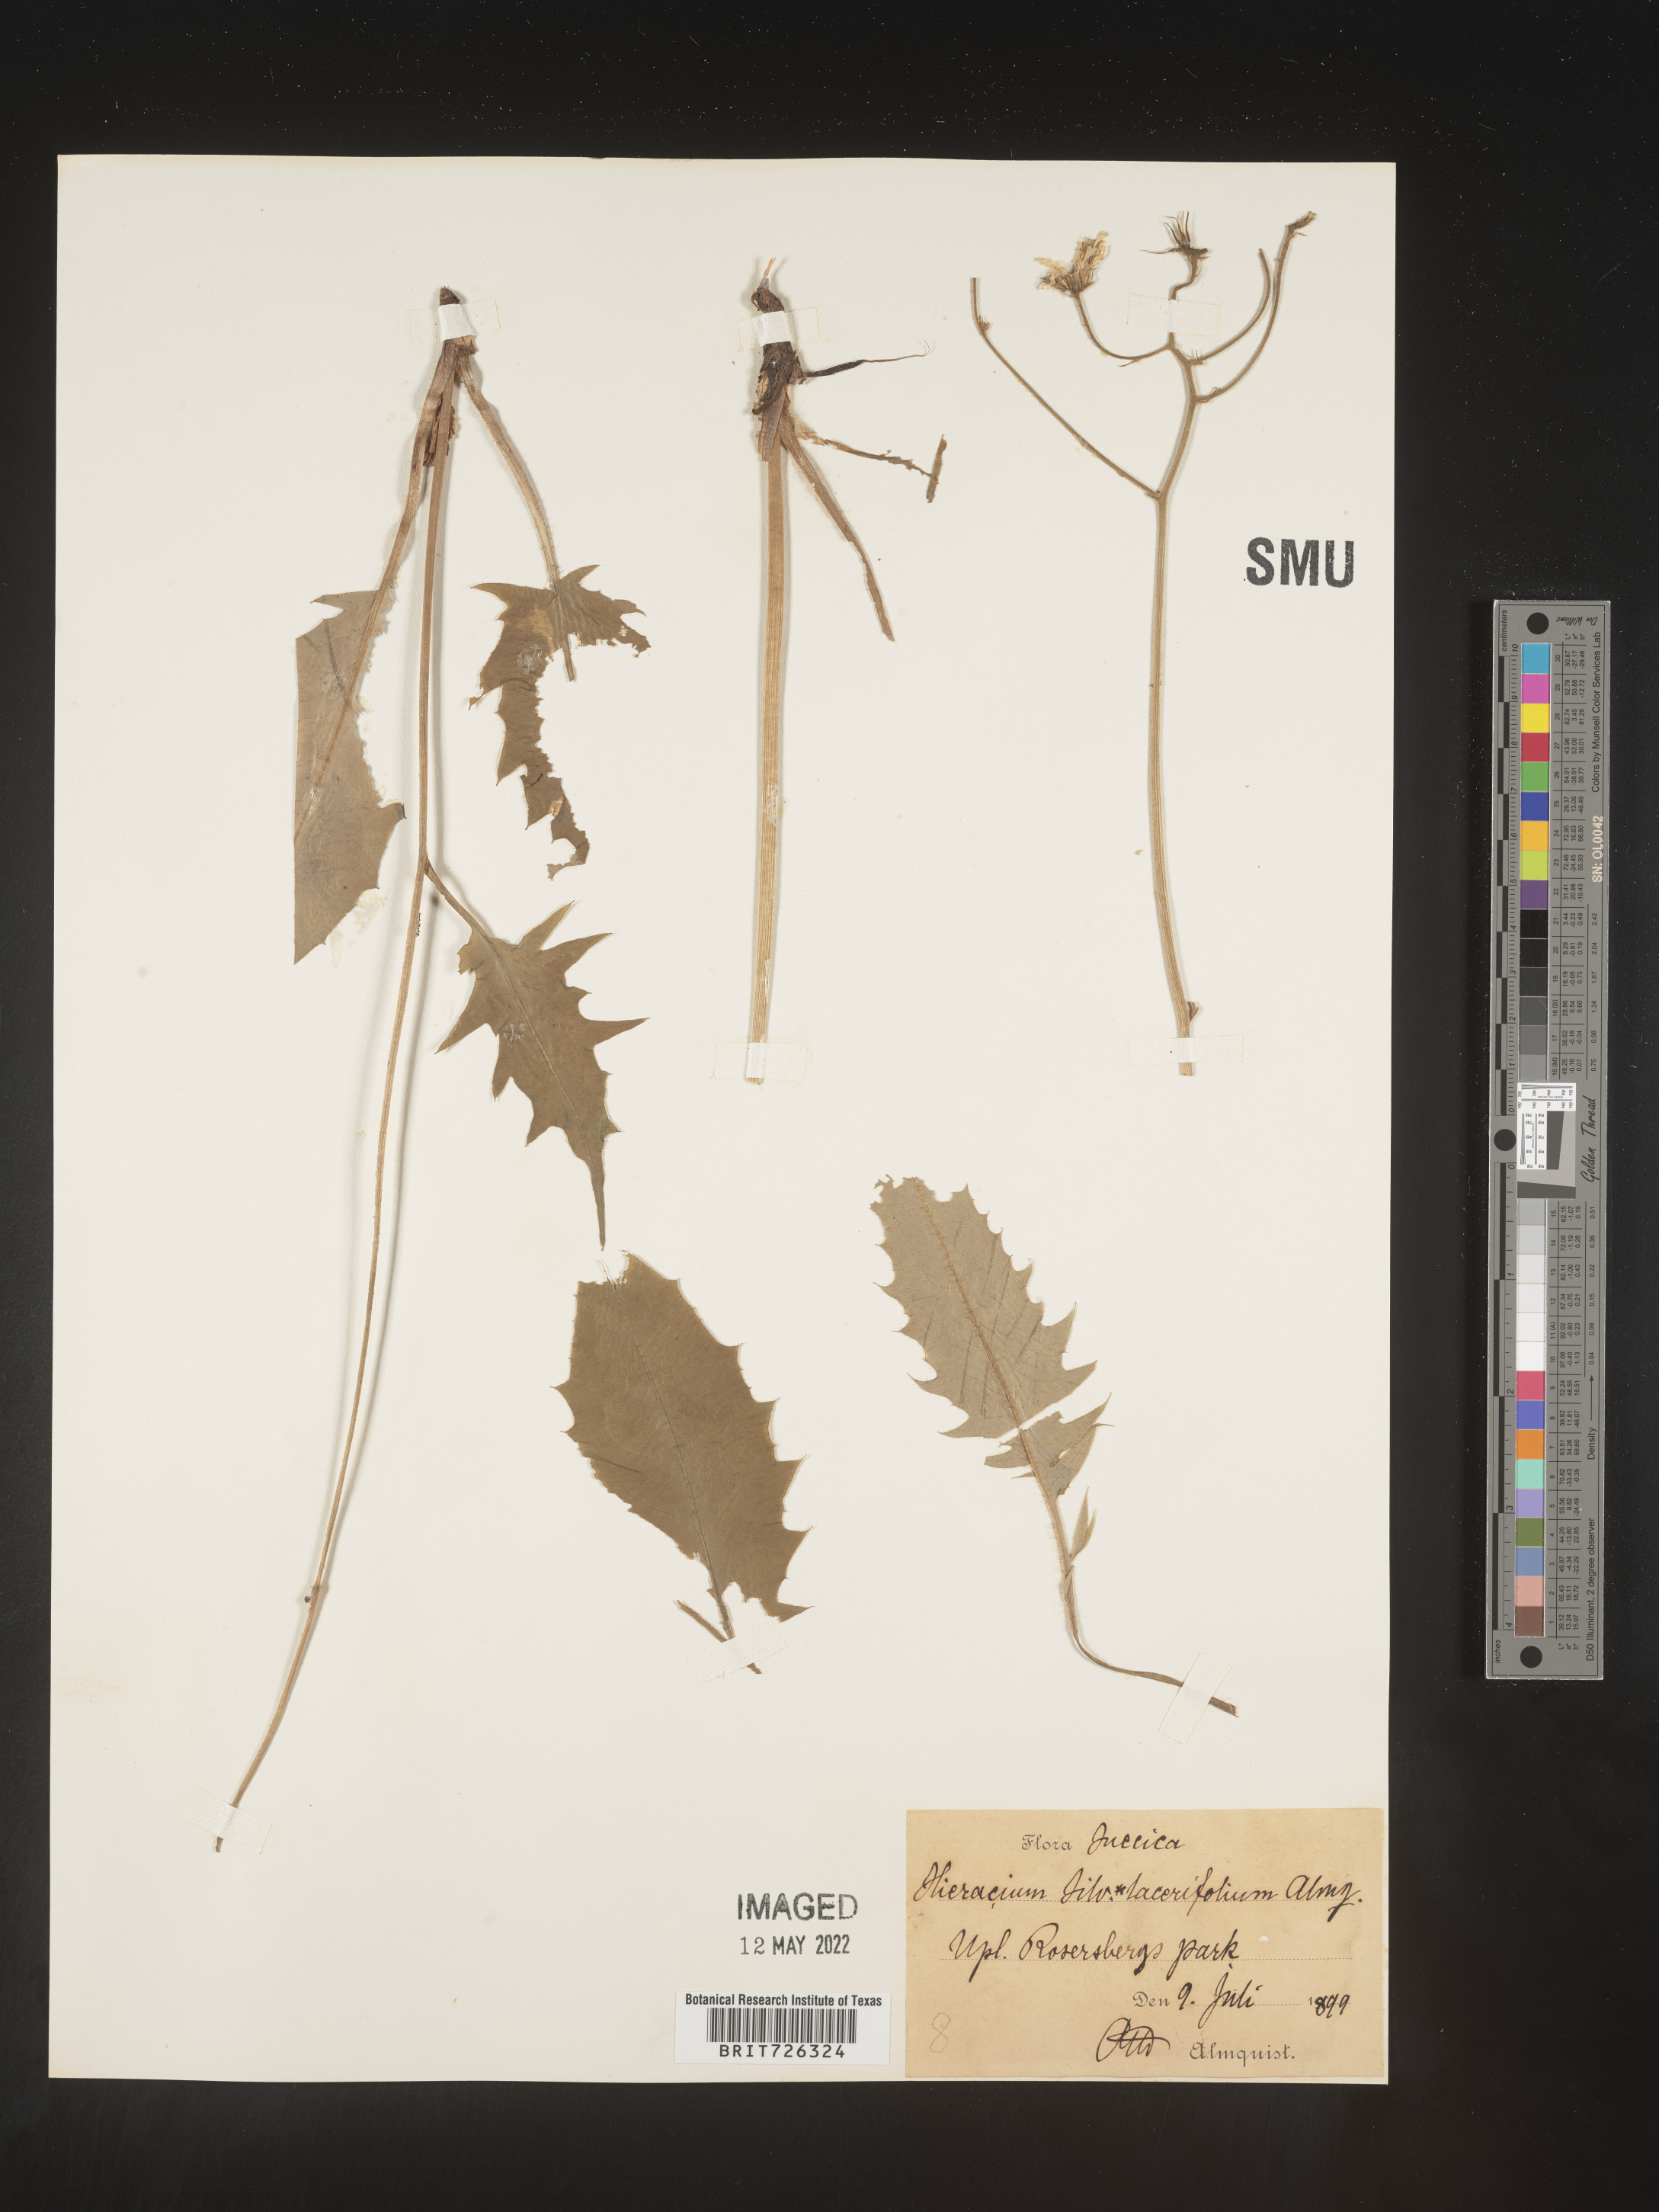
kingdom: Plantae
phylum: Tracheophyta
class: Magnoliopsida
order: Asterales
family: Asteraceae
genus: Hieracium
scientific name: Hieracium
